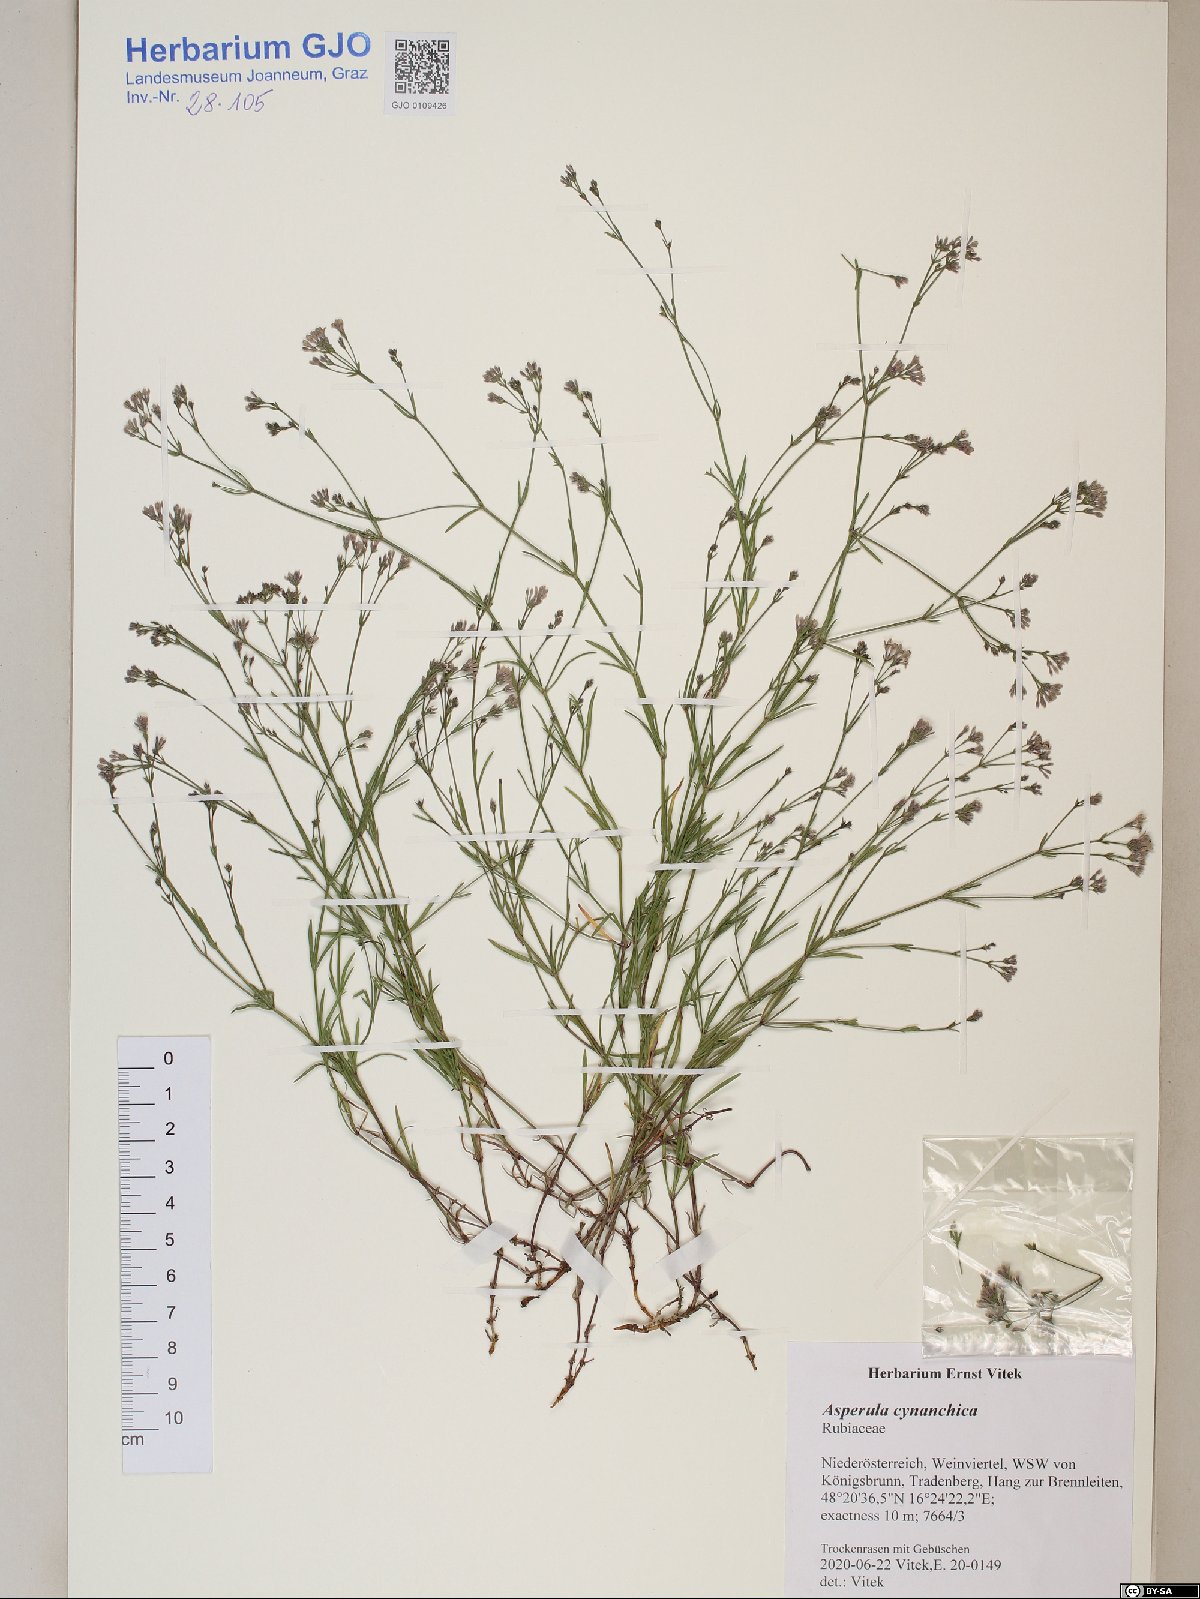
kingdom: Plantae
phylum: Tracheophyta
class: Magnoliopsida
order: Gentianales
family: Rubiaceae
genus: Cynanchica
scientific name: Cynanchica pyrenaica
